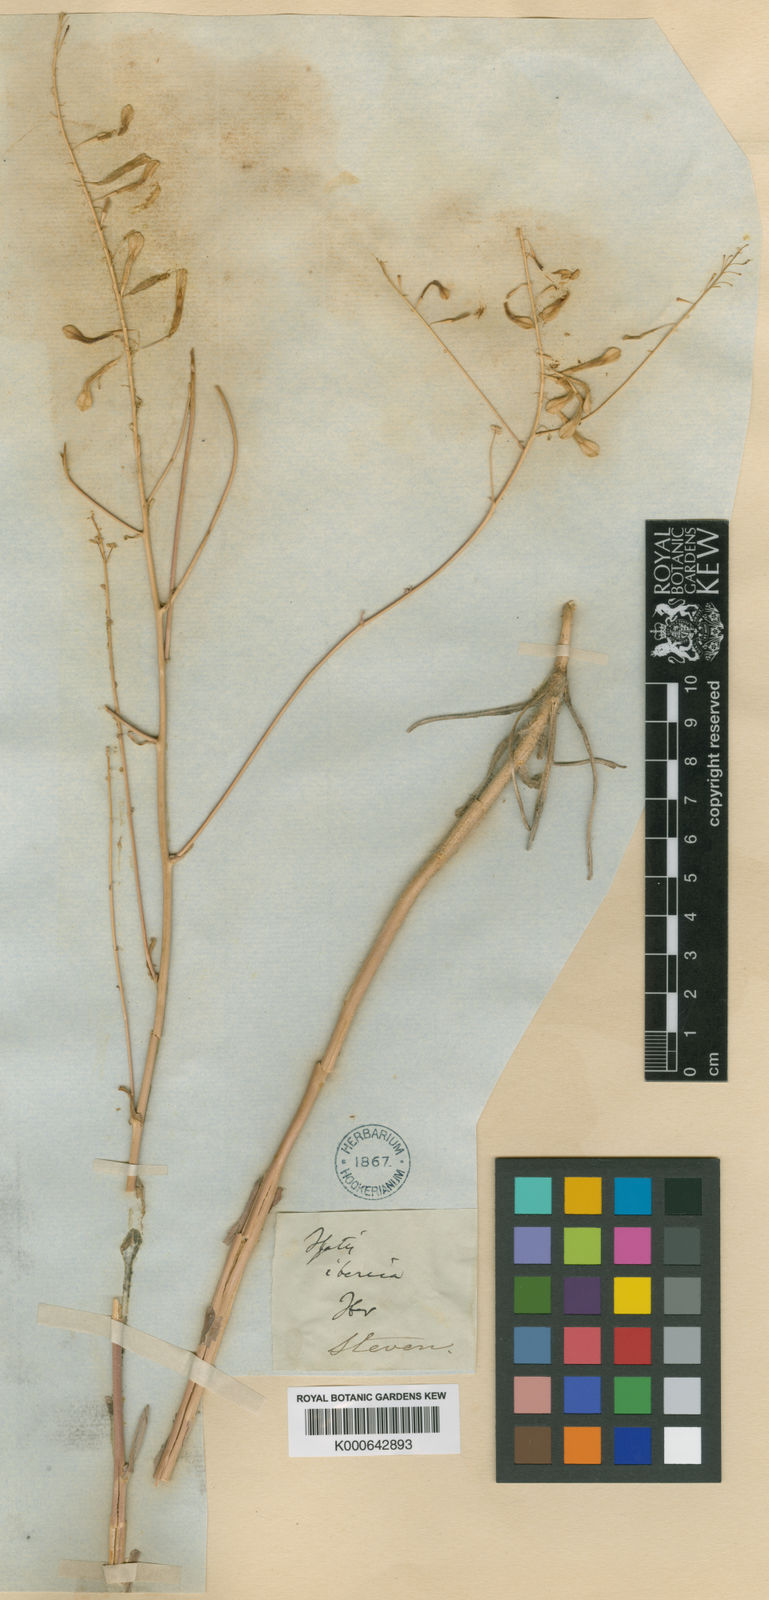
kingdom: Plantae
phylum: Tracheophyta
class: Magnoliopsida
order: Brassicales
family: Brassicaceae
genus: Isatis
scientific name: Isatis iberica
